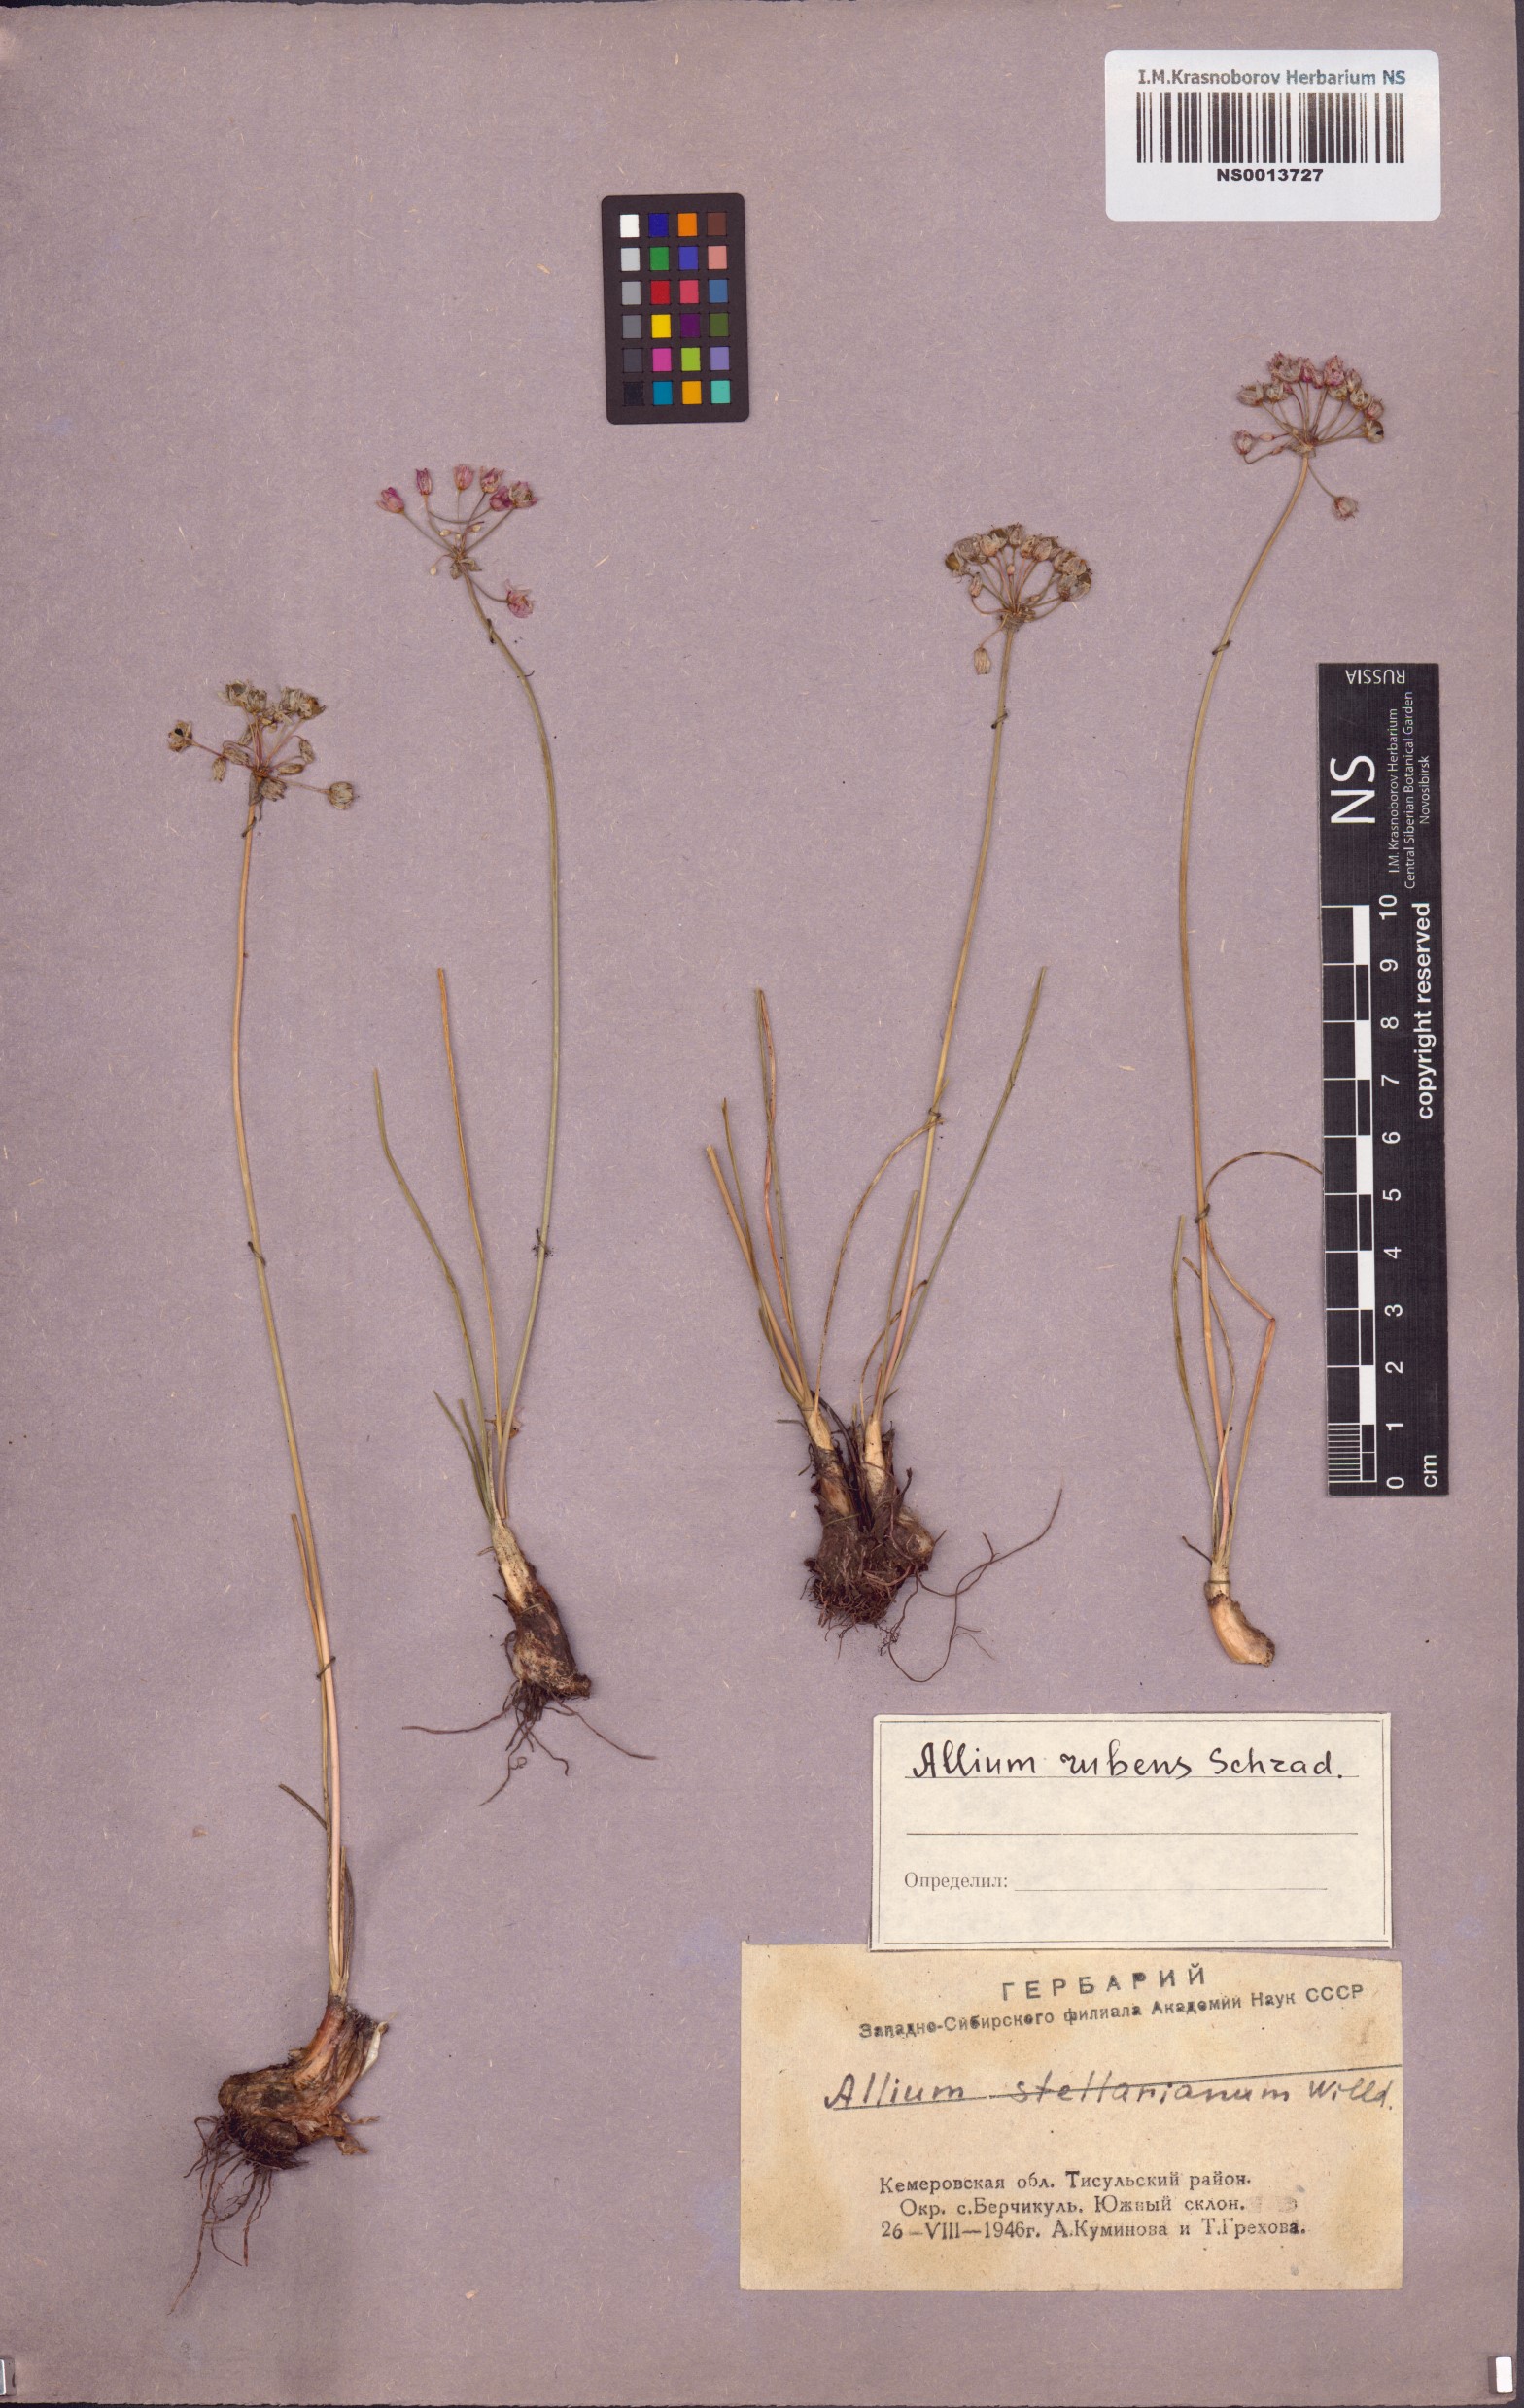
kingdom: Plantae
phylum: Tracheophyta
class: Liliopsida
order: Asparagales
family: Amaryllidaceae
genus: Allium
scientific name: Allium rubens
